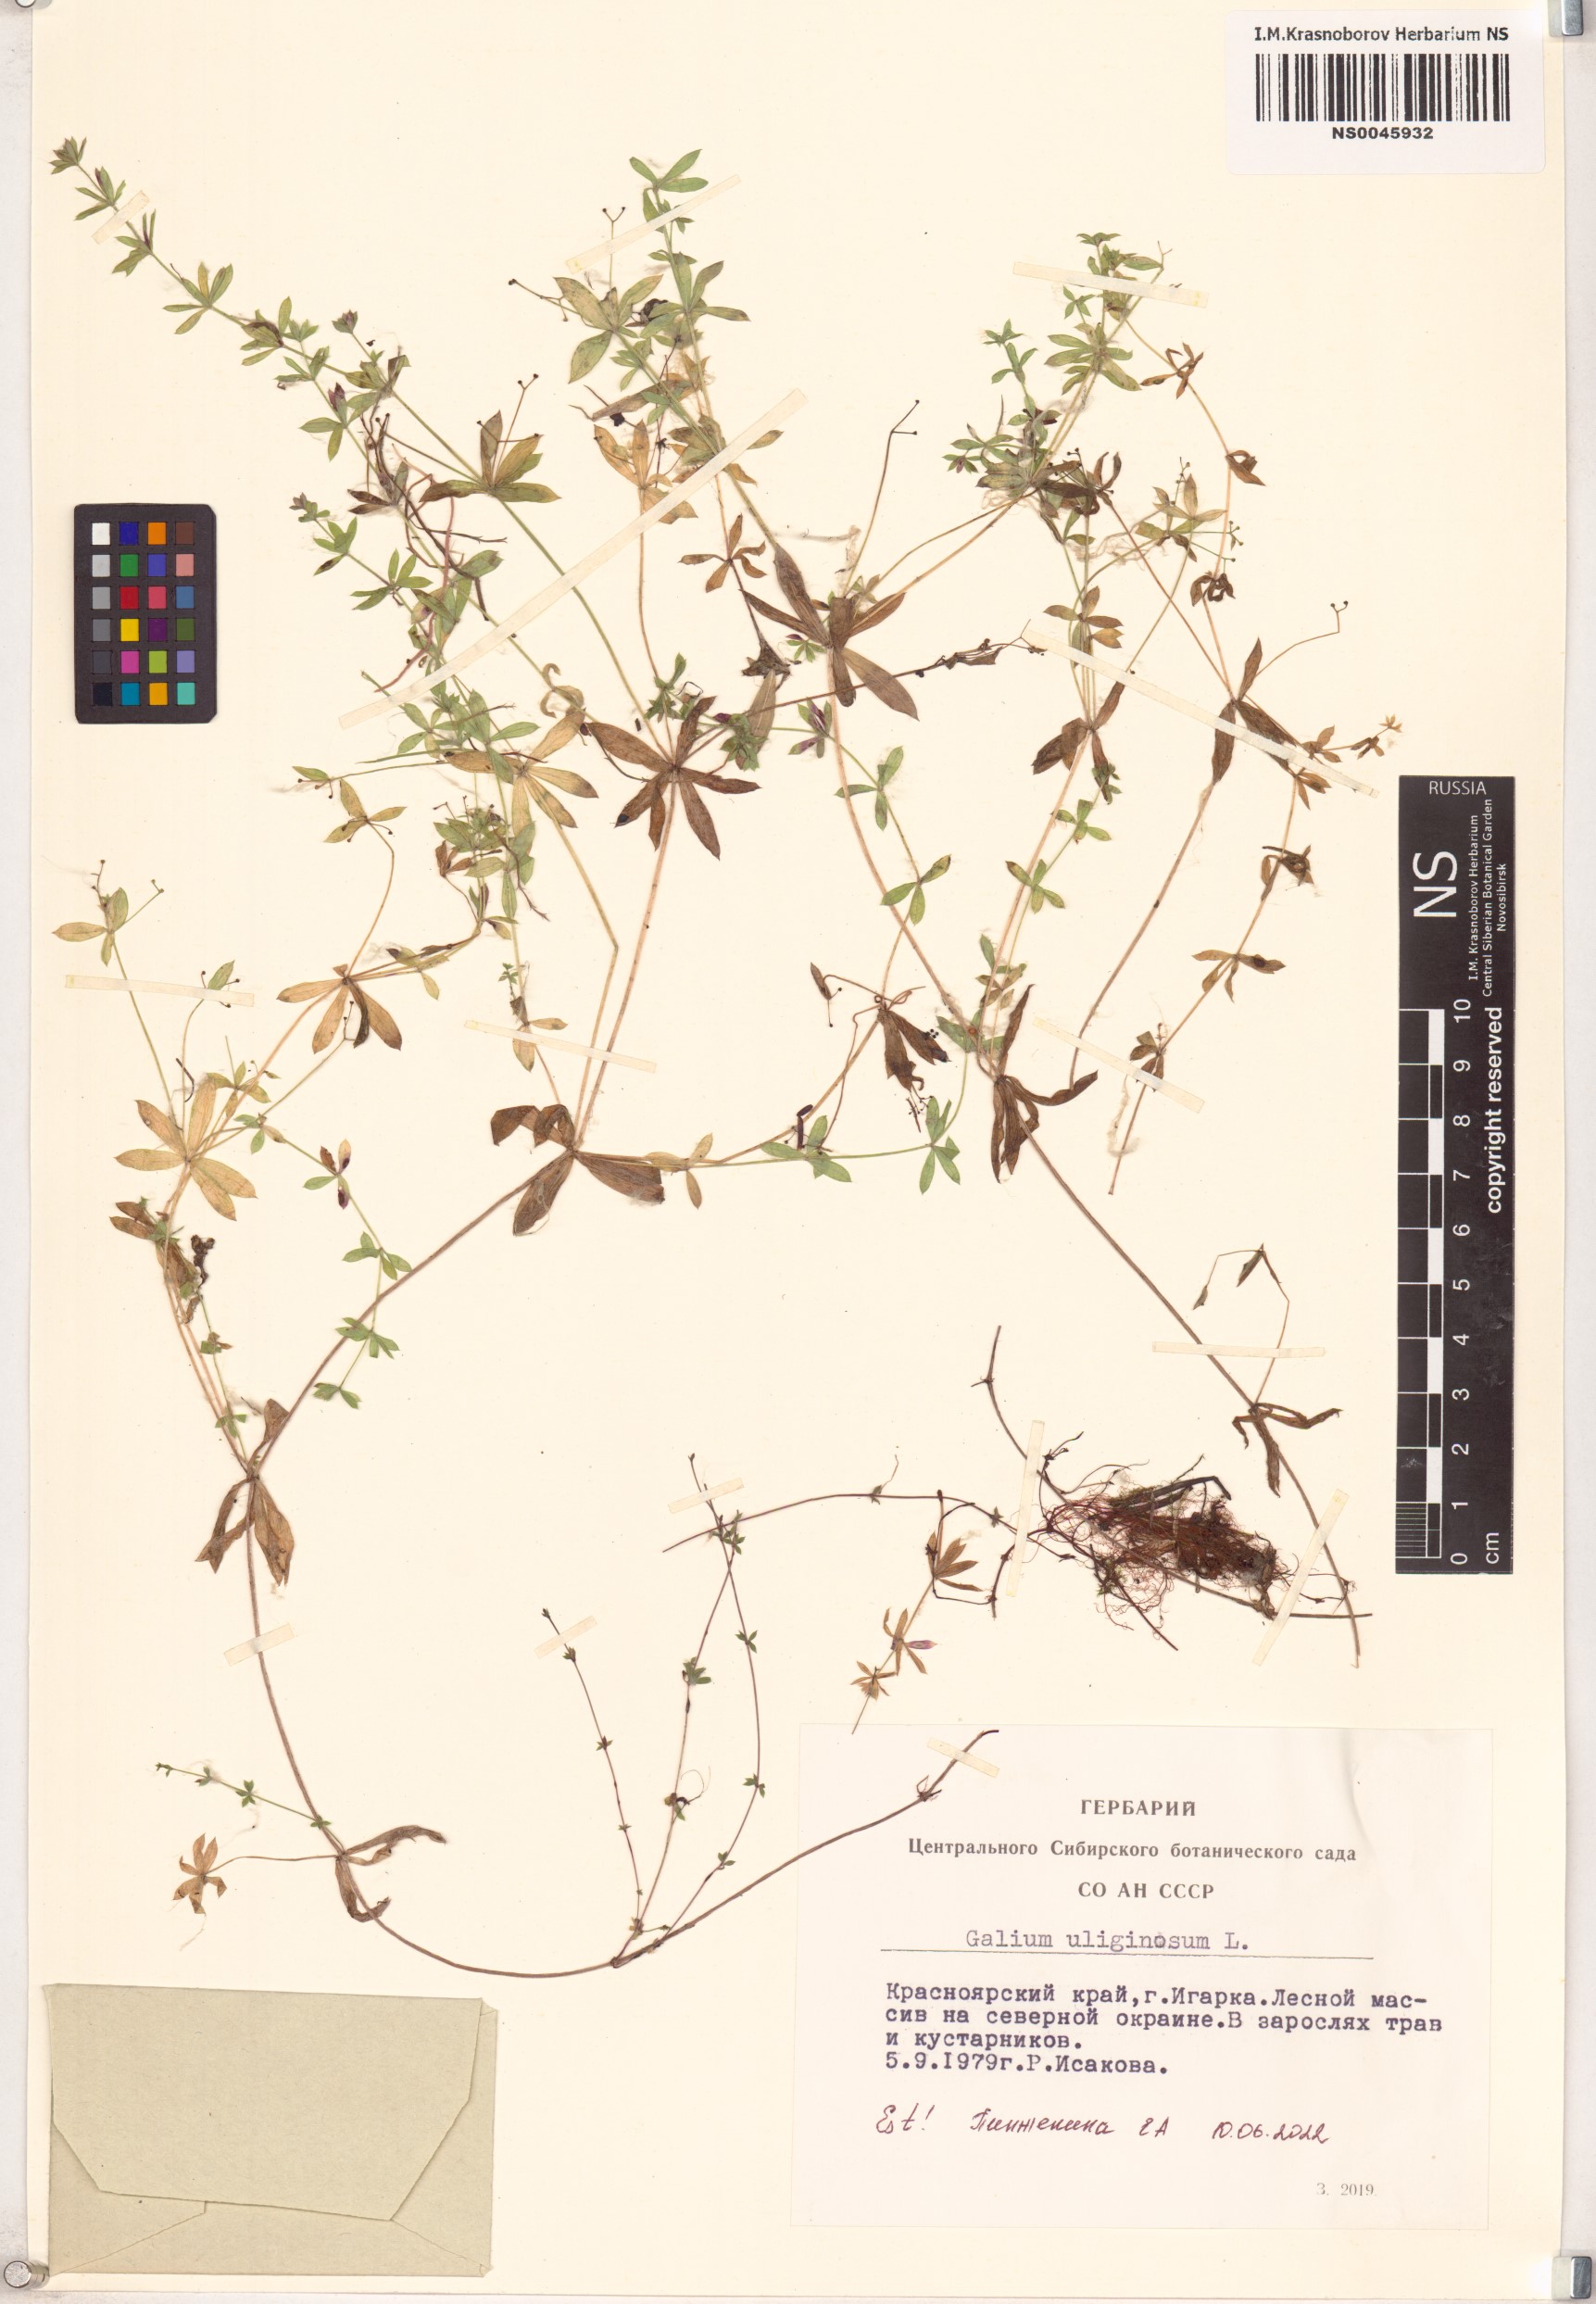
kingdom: Plantae
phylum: Tracheophyta
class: Magnoliopsida
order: Gentianales
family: Rubiaceae
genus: Galium
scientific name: Galium uliginosum
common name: Fen bedstraw
